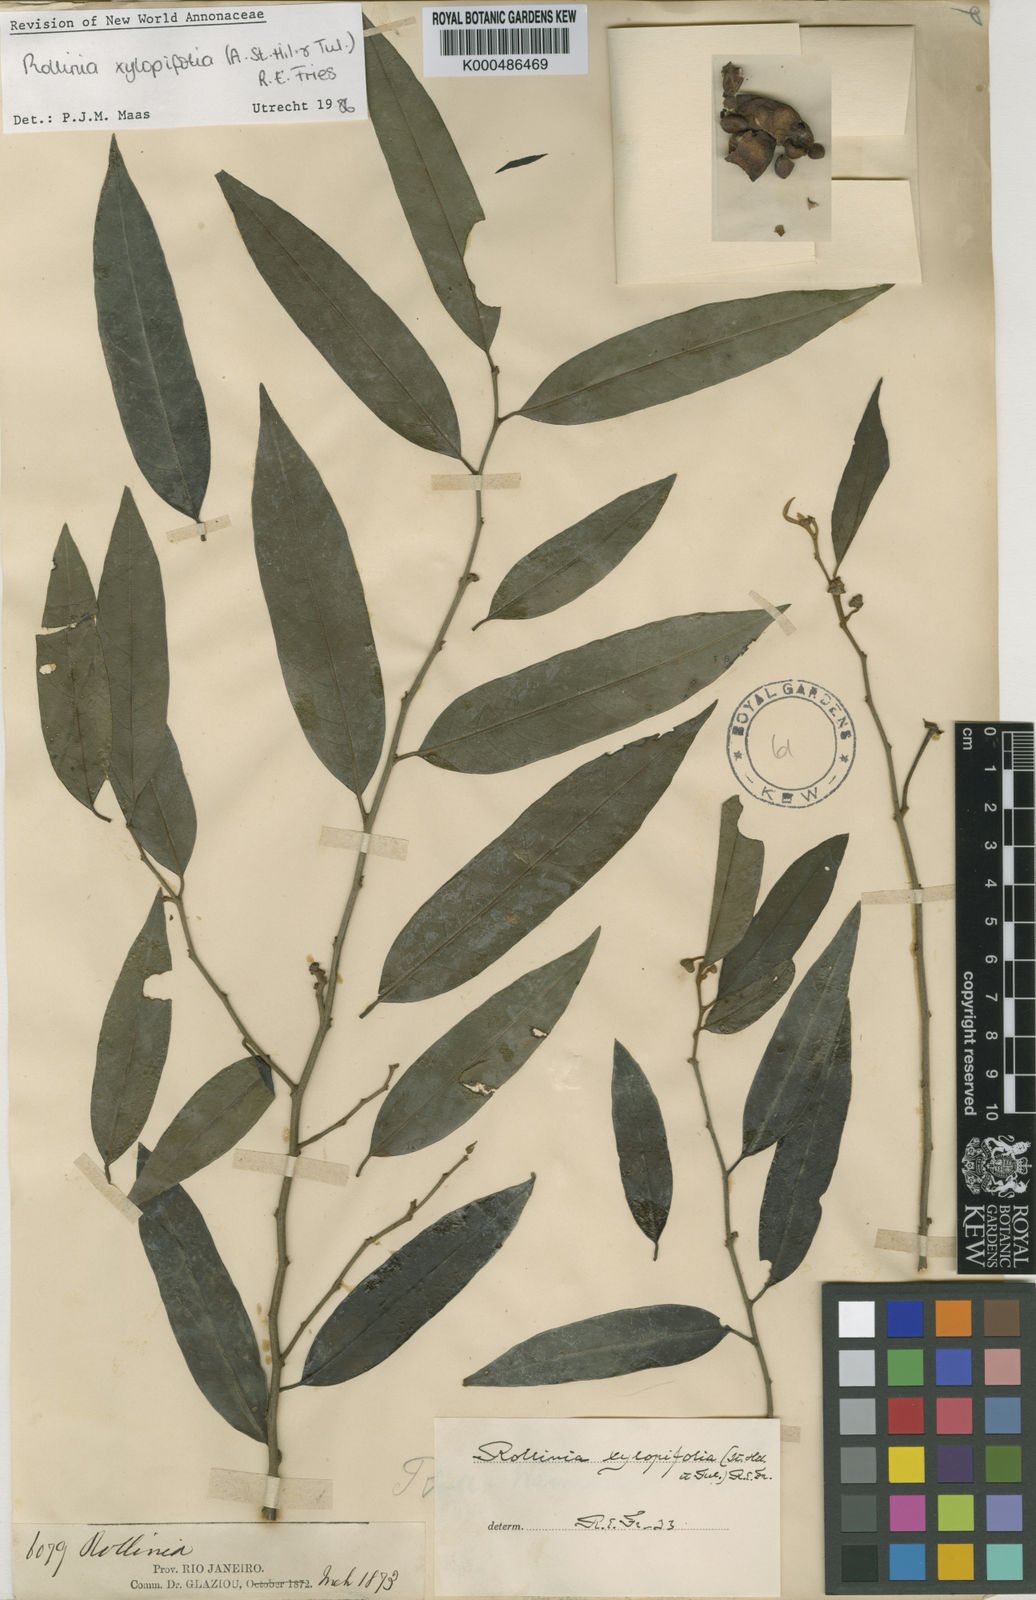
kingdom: Plantae
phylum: Tracheophyta
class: Magnoliopsida
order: Magnoliales
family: Annonaceae
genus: Annona
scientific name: Annona xylopiifolia
